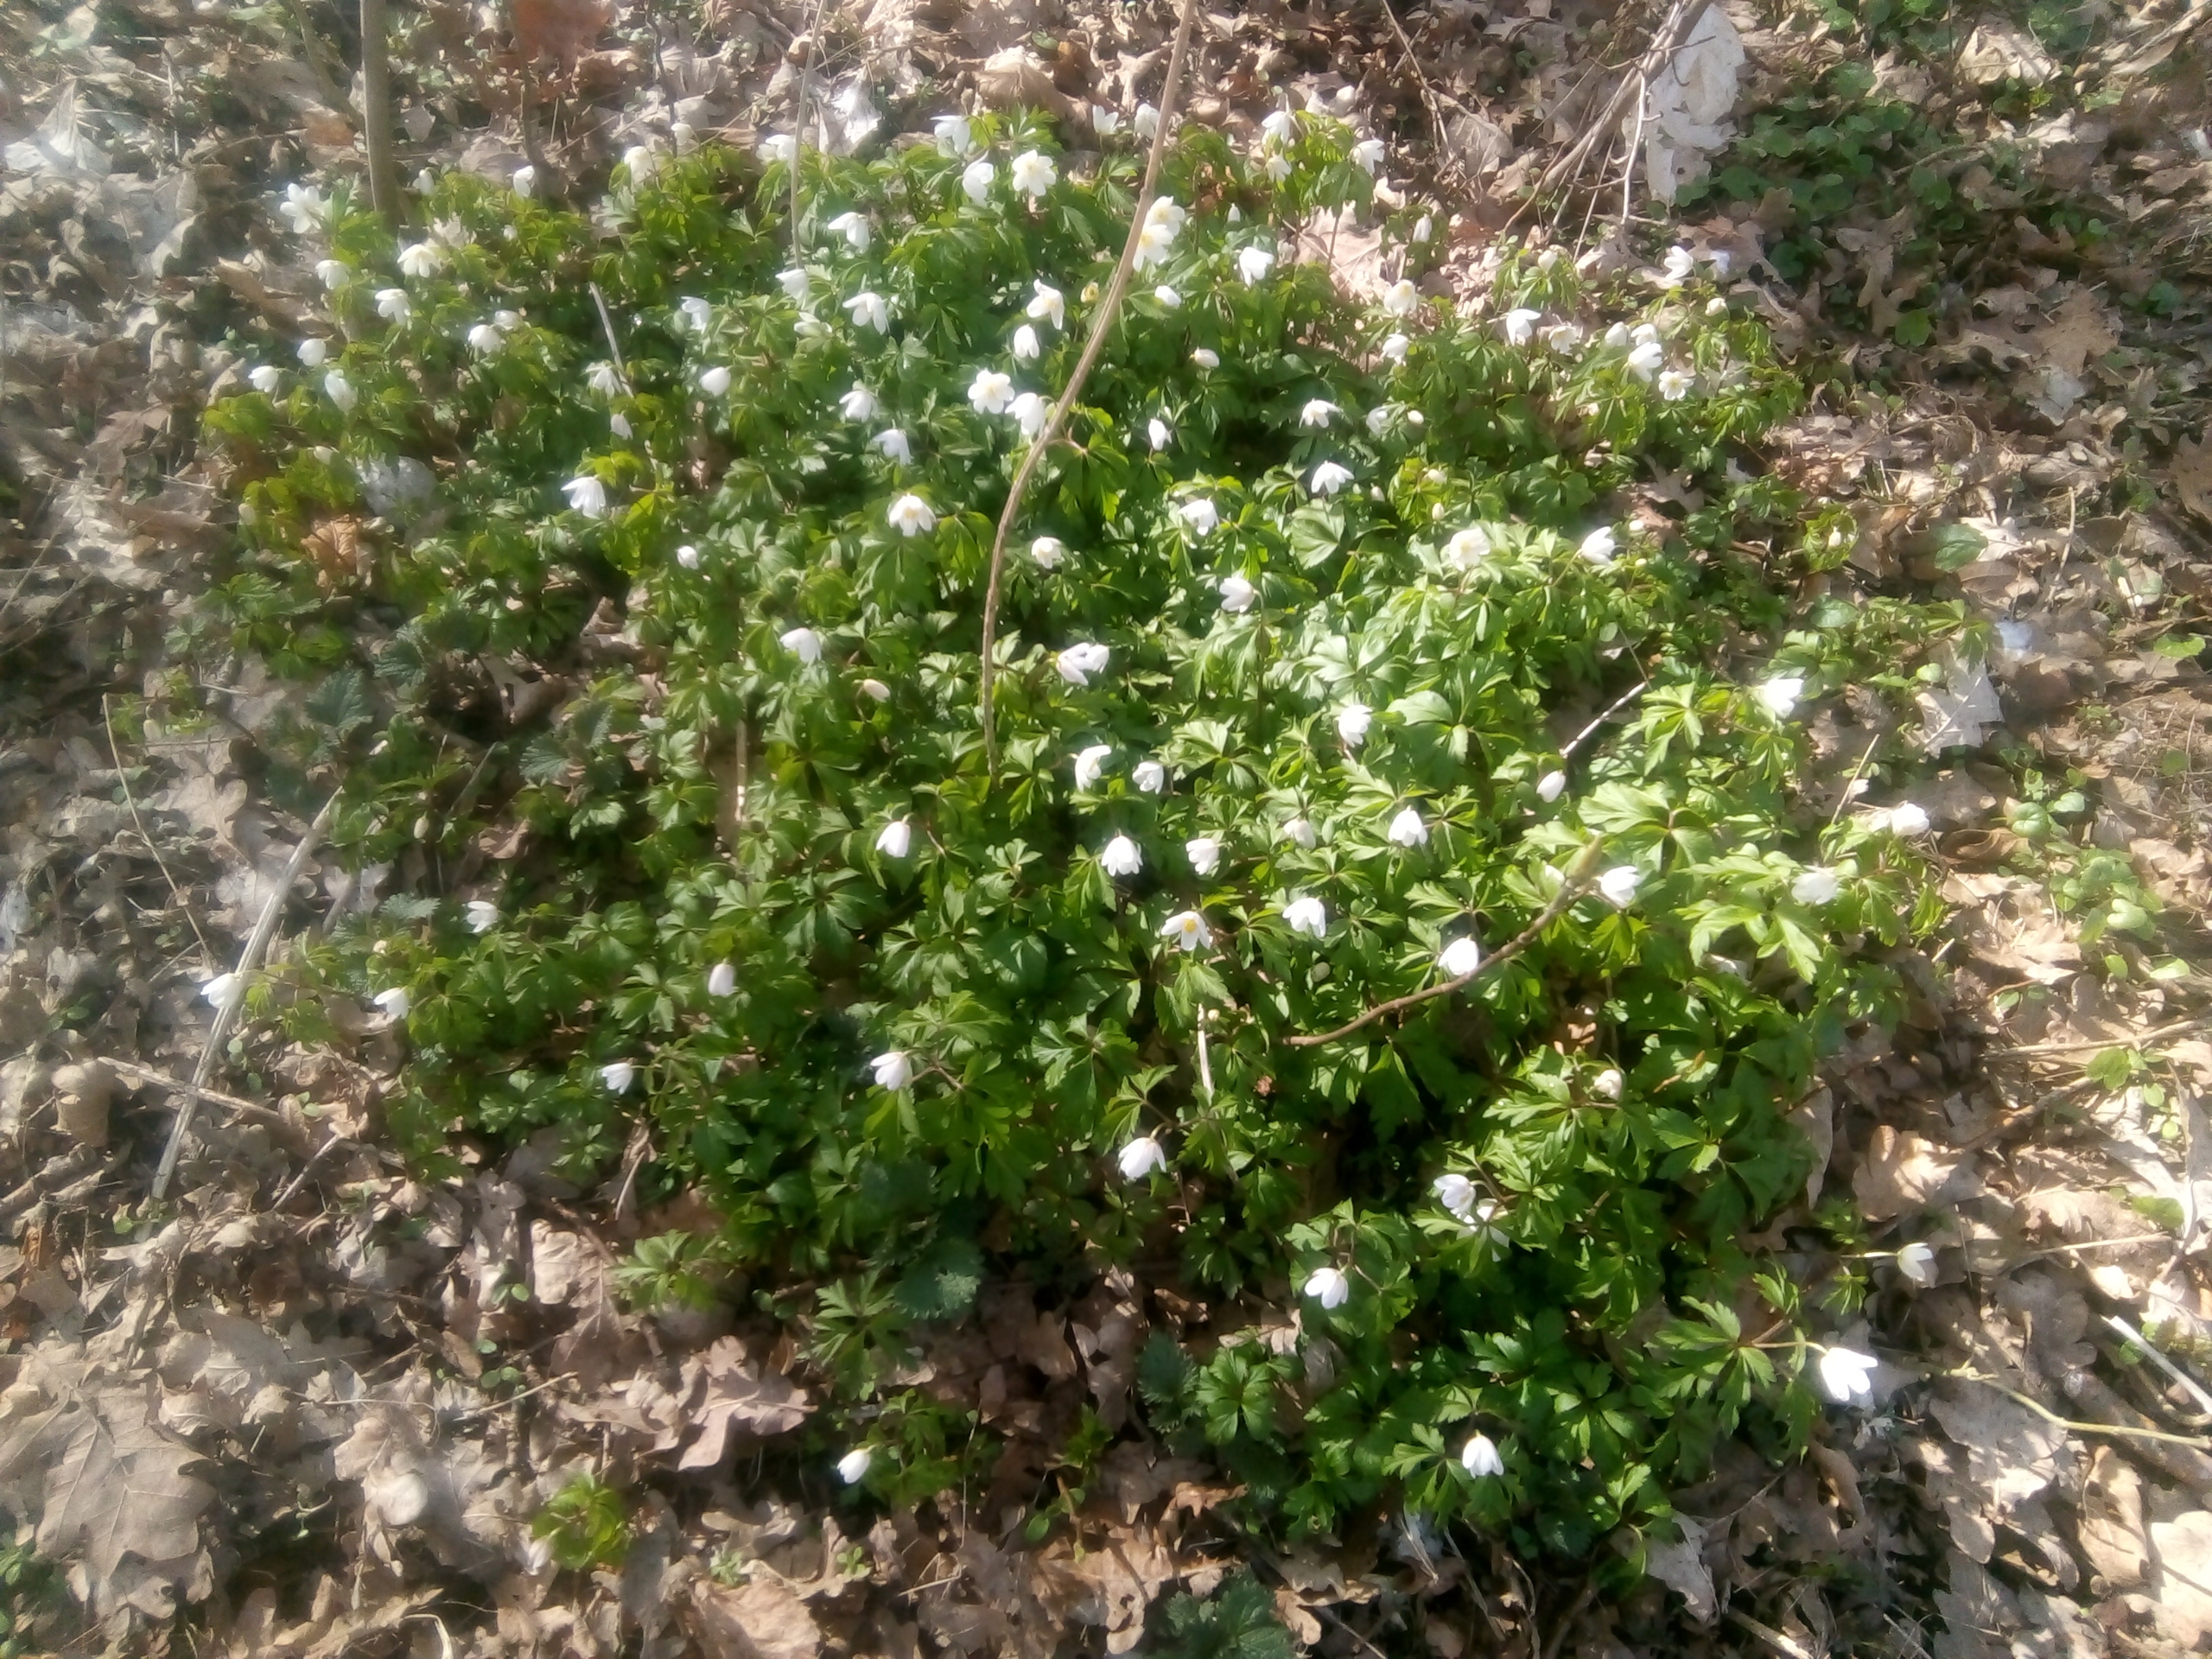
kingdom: Plantae
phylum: Tracheophyta
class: Magnoliopsida
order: Ranunculales
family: Ranunculaceae
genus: Anemone
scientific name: Anemone nemorosa
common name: Hvid anemone
